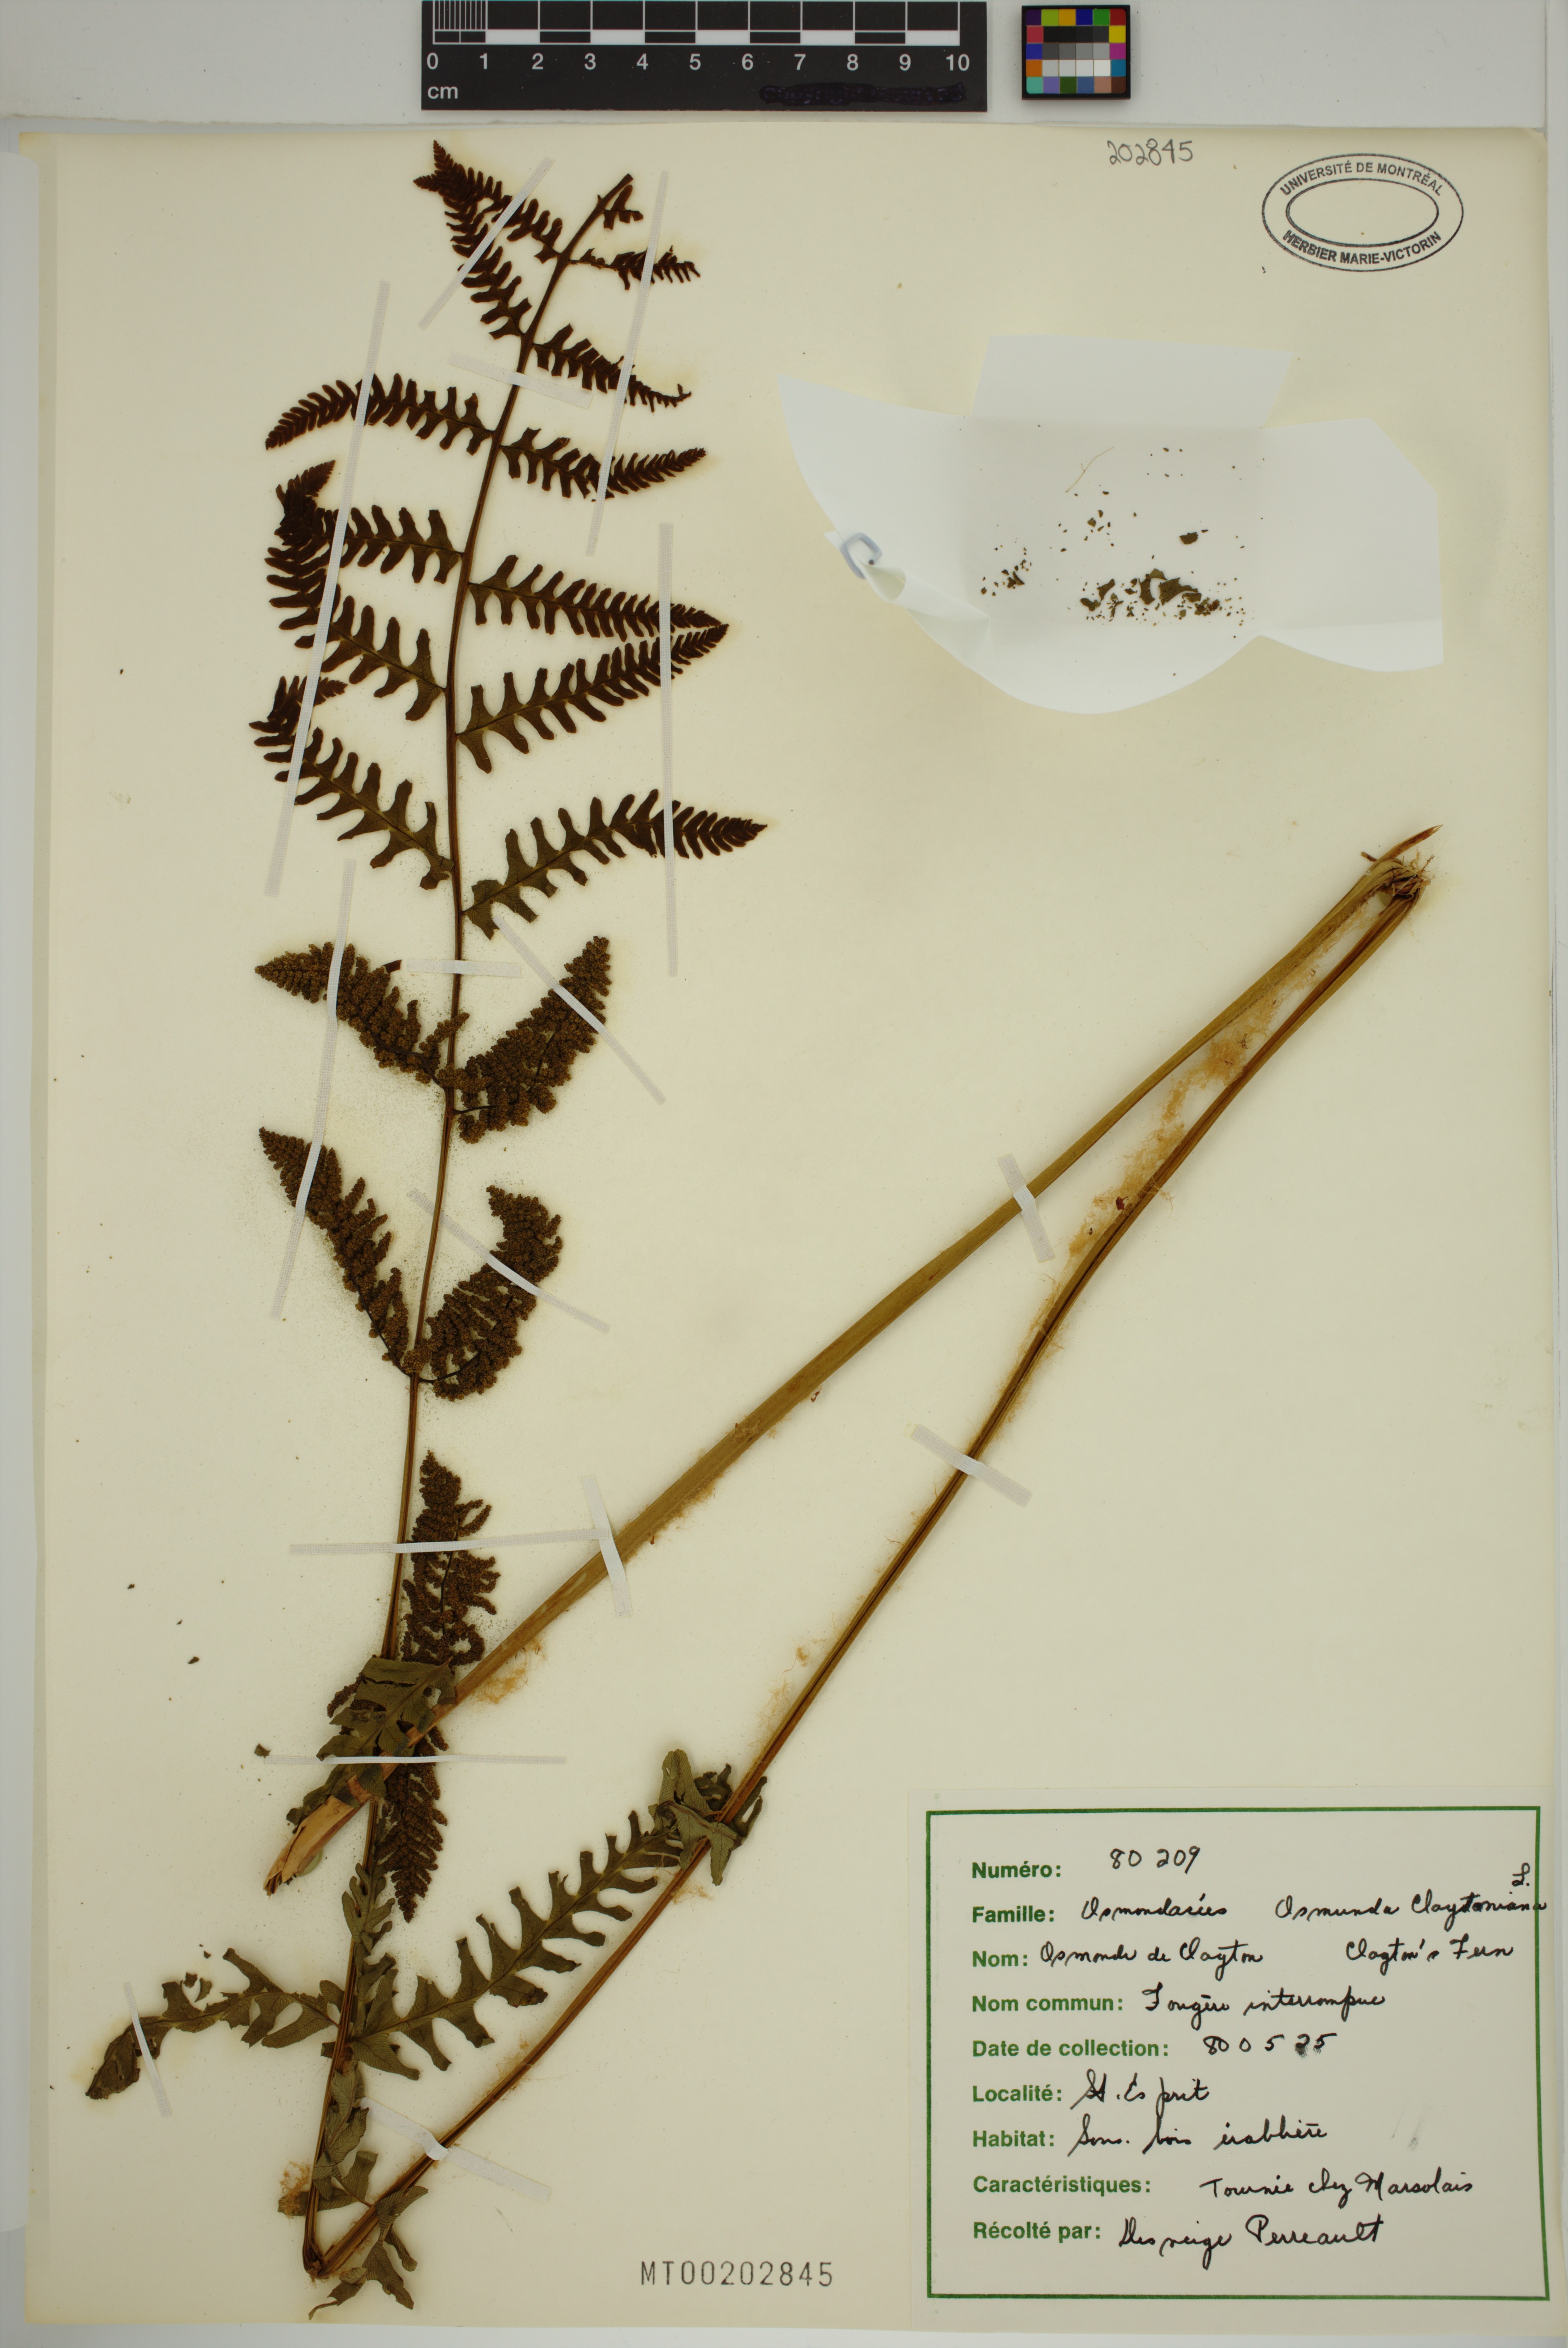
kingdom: Plantae
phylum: Tracheophyta
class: Polypodiopsida
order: Osmundales
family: Osmundaceae
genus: Claytosmunda
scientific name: Claytosmunda claytoniana
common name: Clayton's fern
